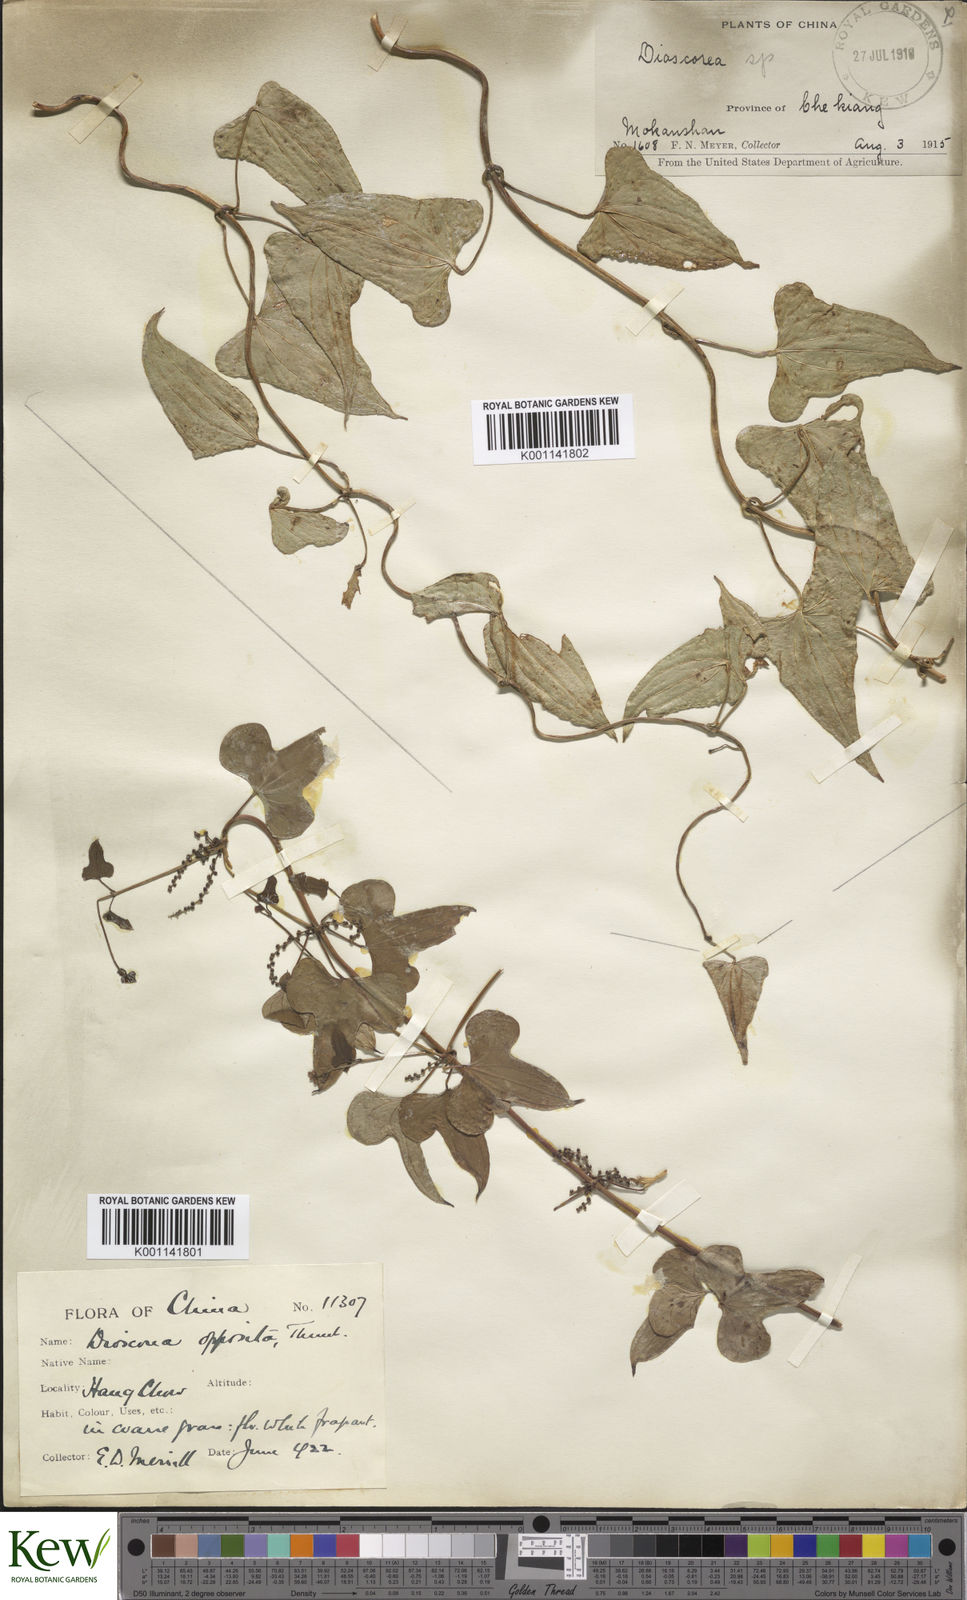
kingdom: Plantae
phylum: Tracheophyta
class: Liliopsida
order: Dioscoreales
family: Dioscoreaceae
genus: Dioscorea
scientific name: Dioscorea oppositifolia
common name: Chinese yam
